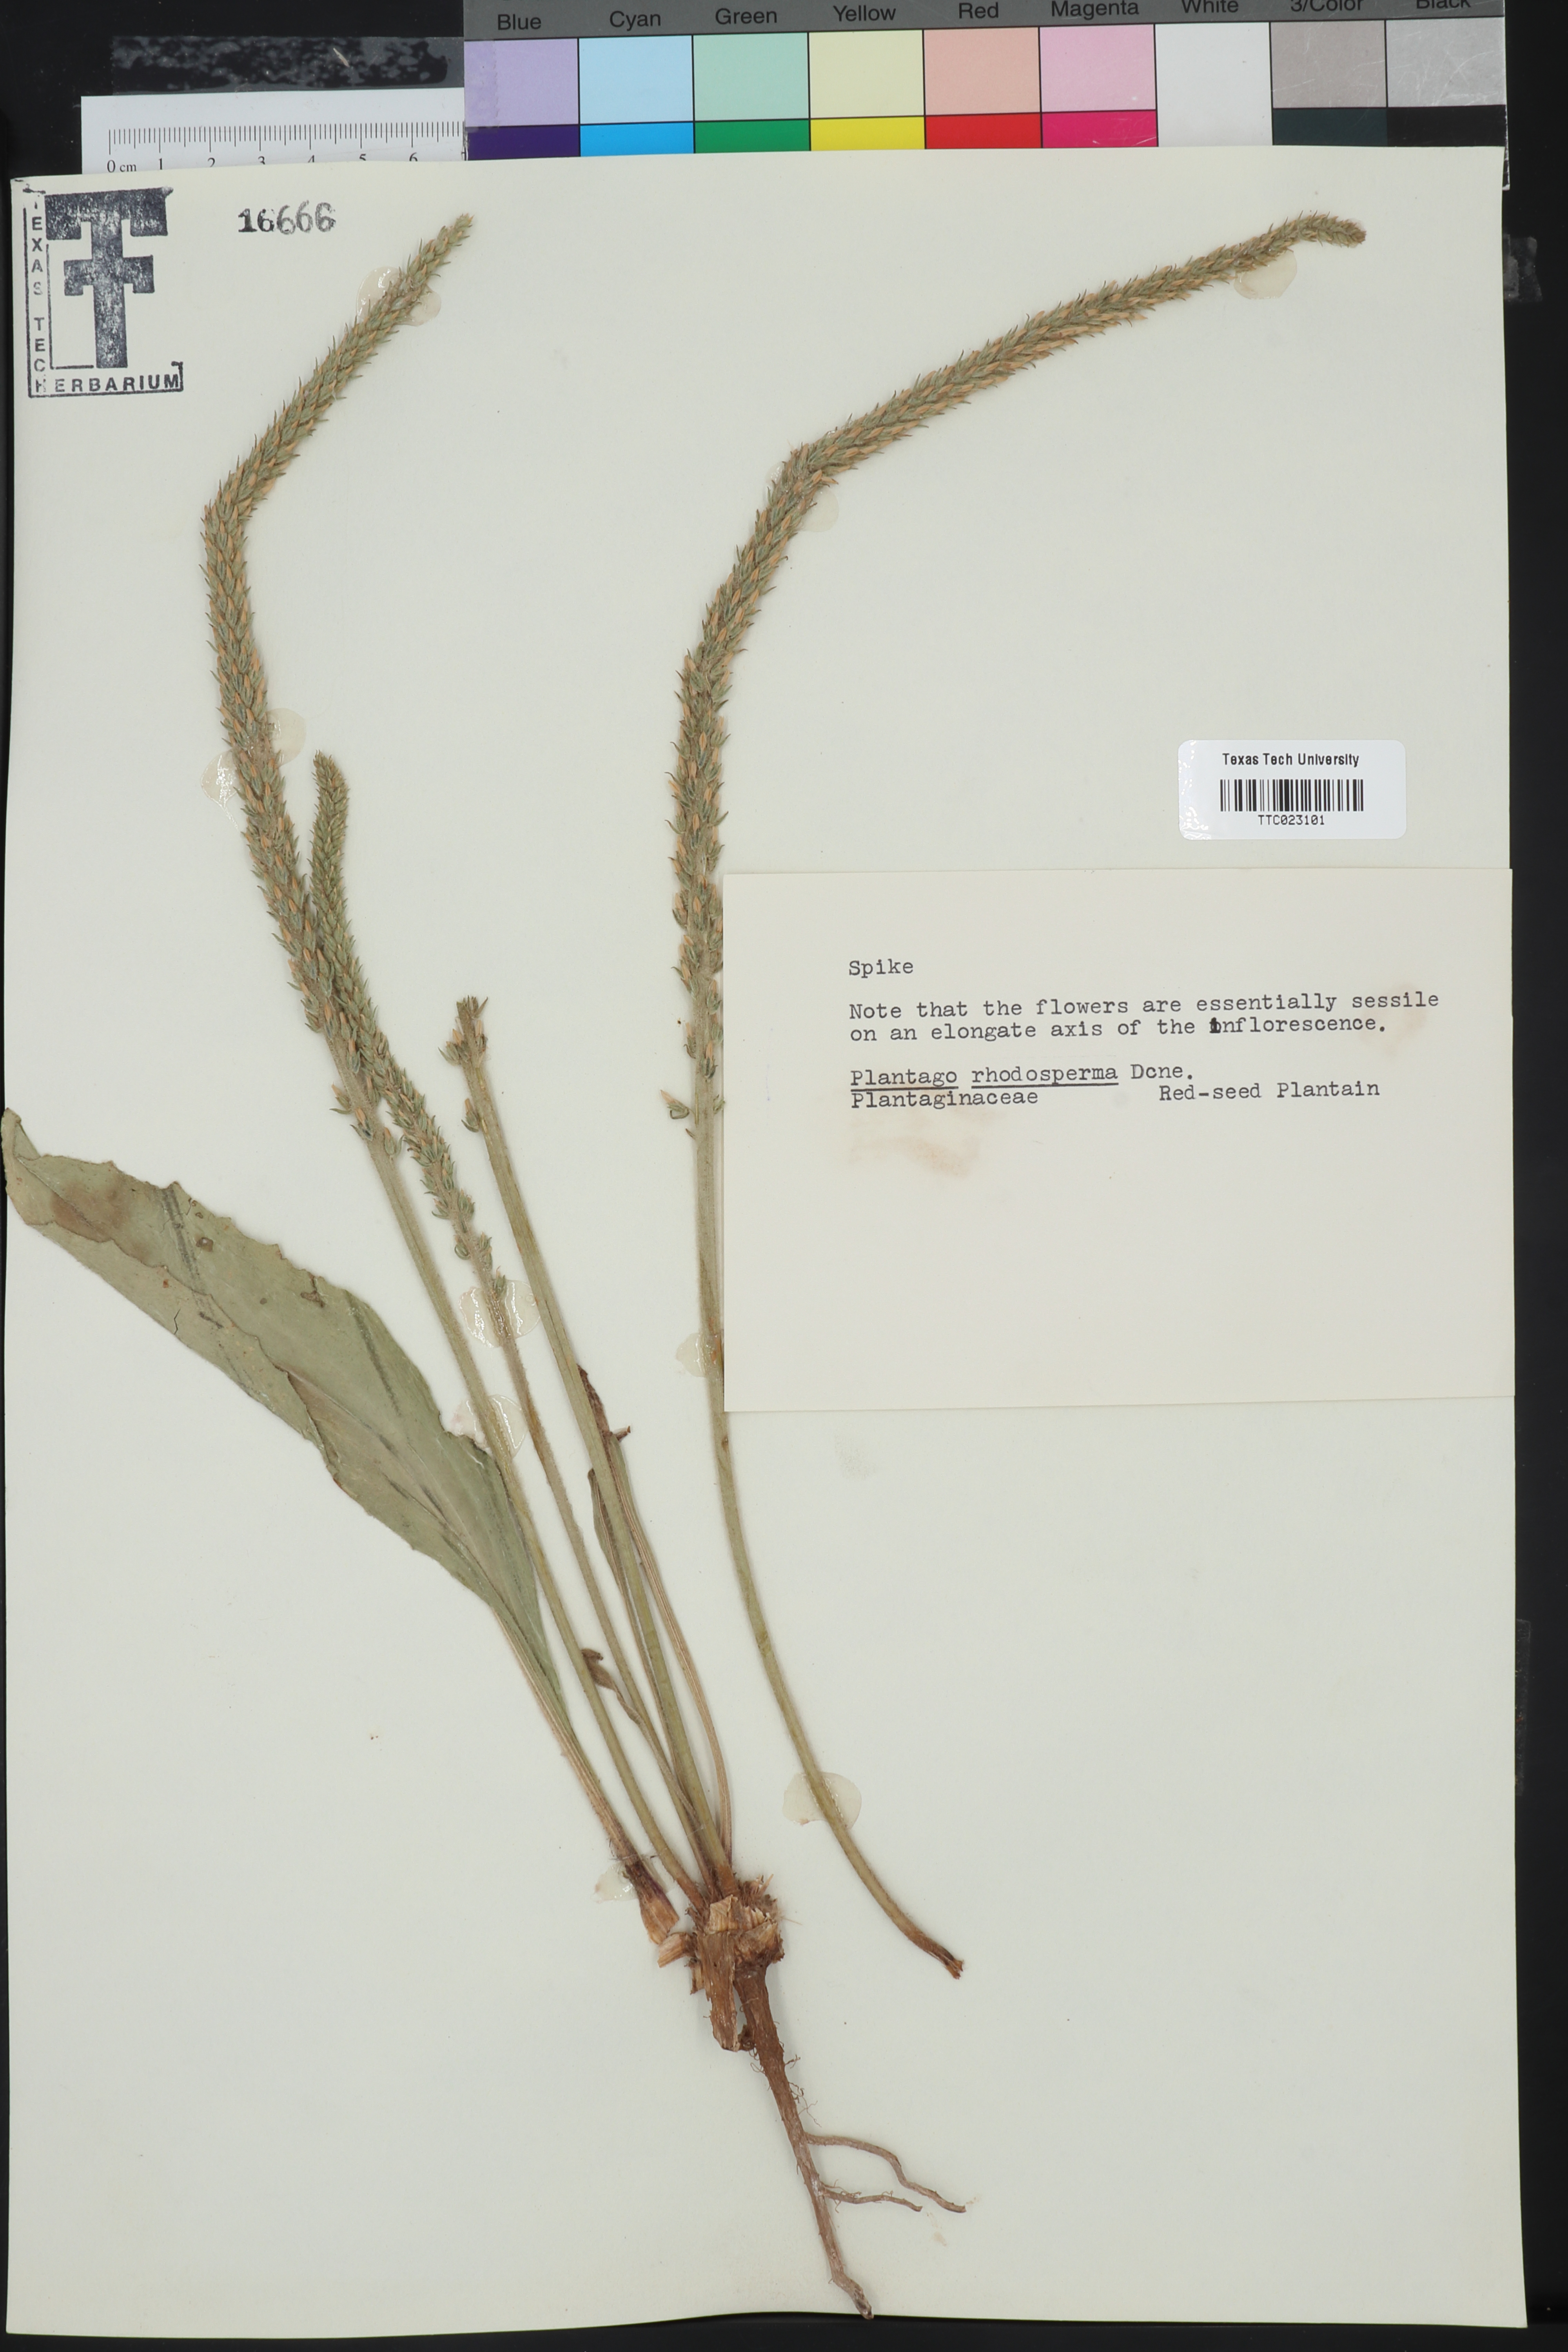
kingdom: Plantae
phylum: Tracheophyta
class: Magnoliopsida
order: Lamiales
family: Plantaginaceae
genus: Plantago
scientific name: Plantago rhodosperma
